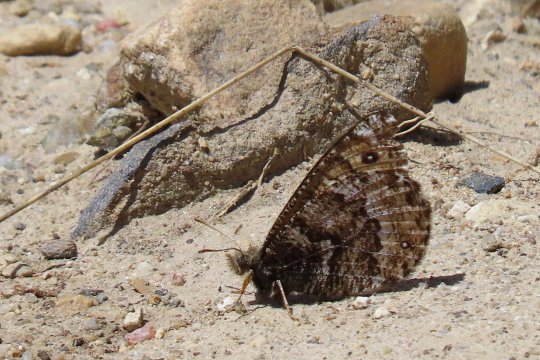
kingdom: Animalia
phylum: Arthropoda
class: Insecta
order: Lepidoptera
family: Nymphalidae
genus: Oeneis
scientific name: Oeneis chryxus
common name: Chryxus Arctic
